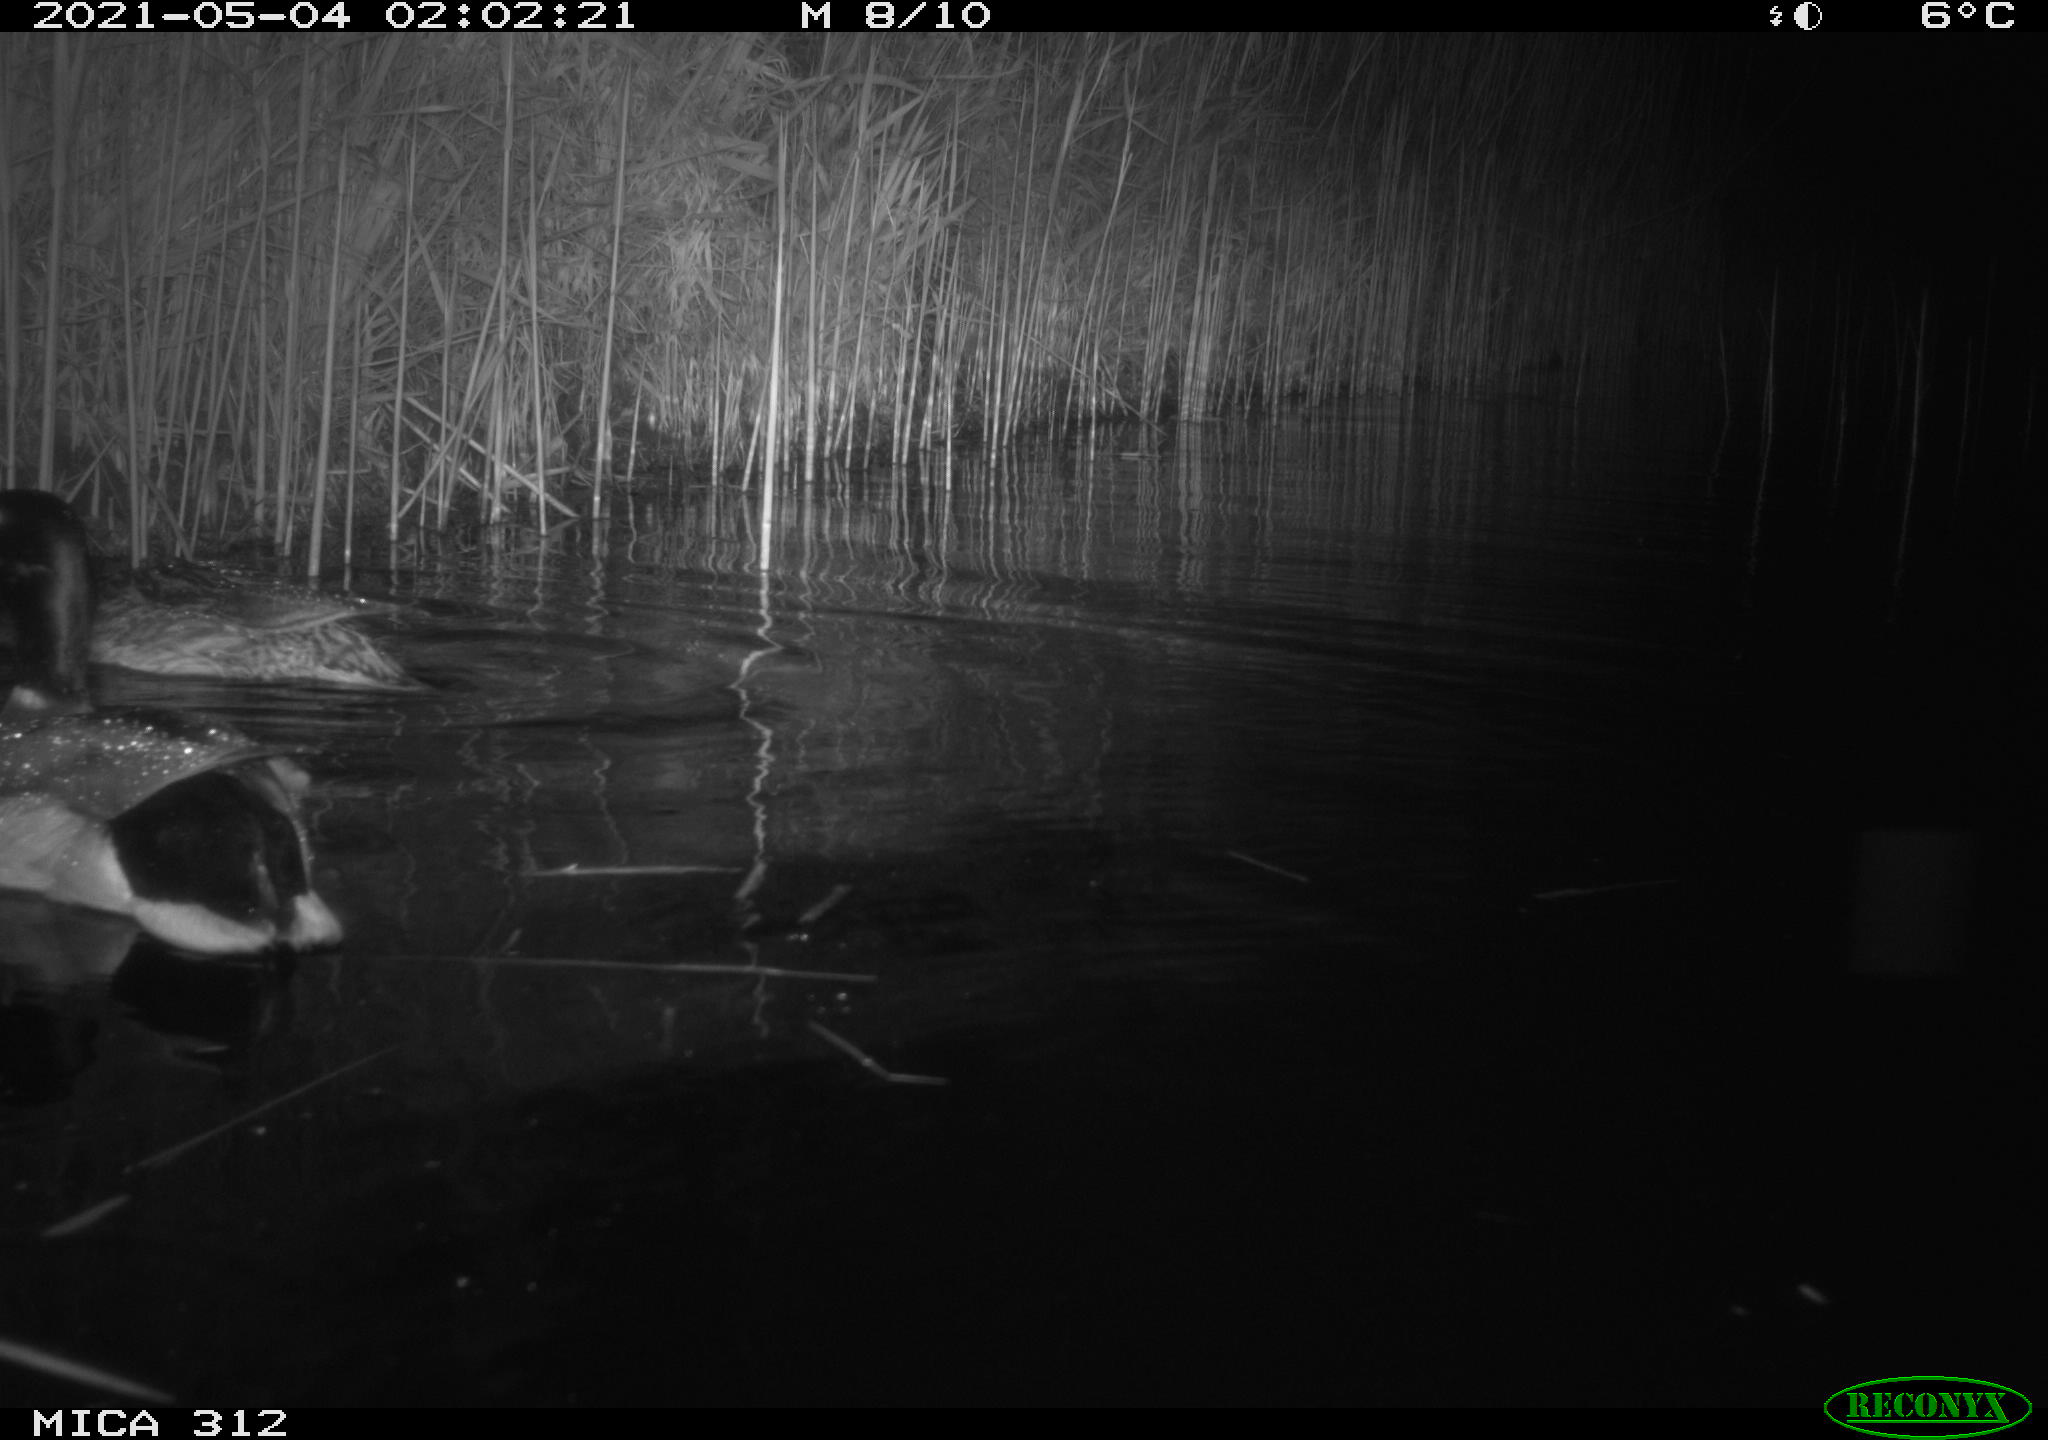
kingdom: Animalia
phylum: Chordata
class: Aves
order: Anseriformes
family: Anatidae
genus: Anas
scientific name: Anas platyrhynchos
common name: Mallard
